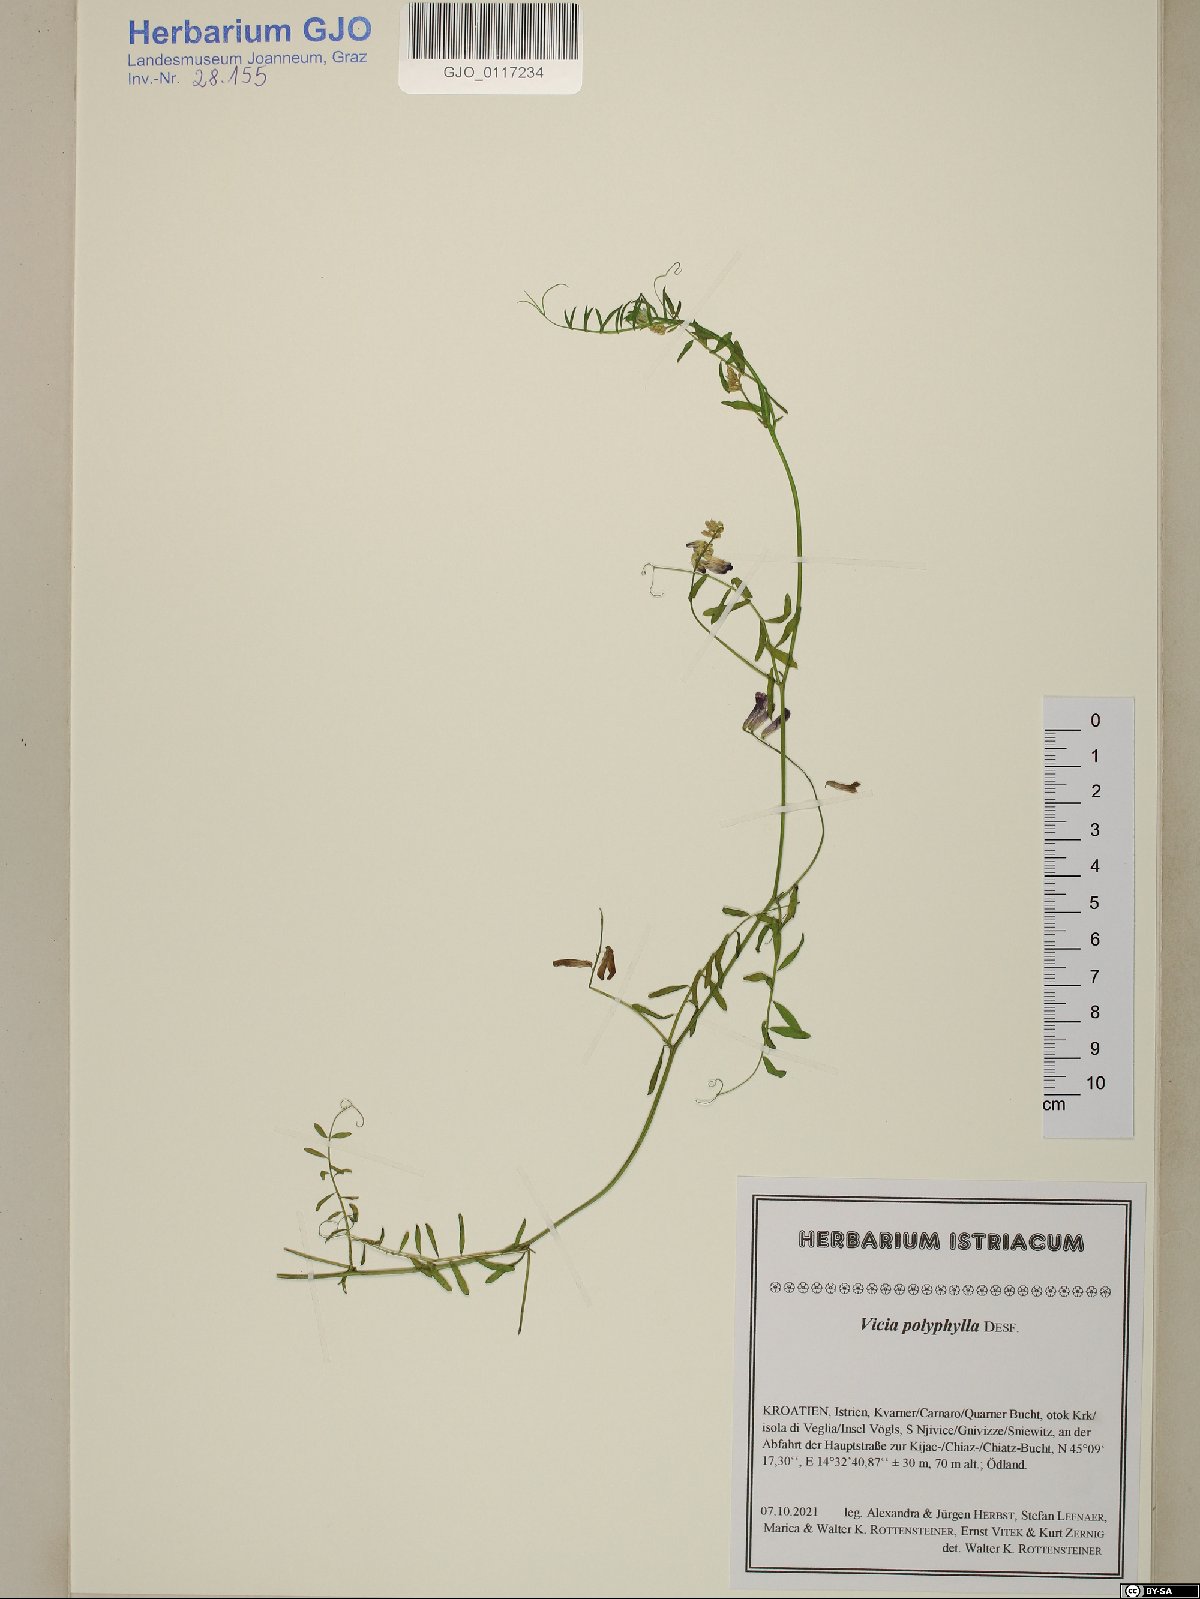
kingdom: Plantae
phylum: Tracheophyta
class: Magnoliopsida
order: Fabales
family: Fabaceae
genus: Vicia
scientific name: Vicia tenuifolia
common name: Fine-leaved vetch
